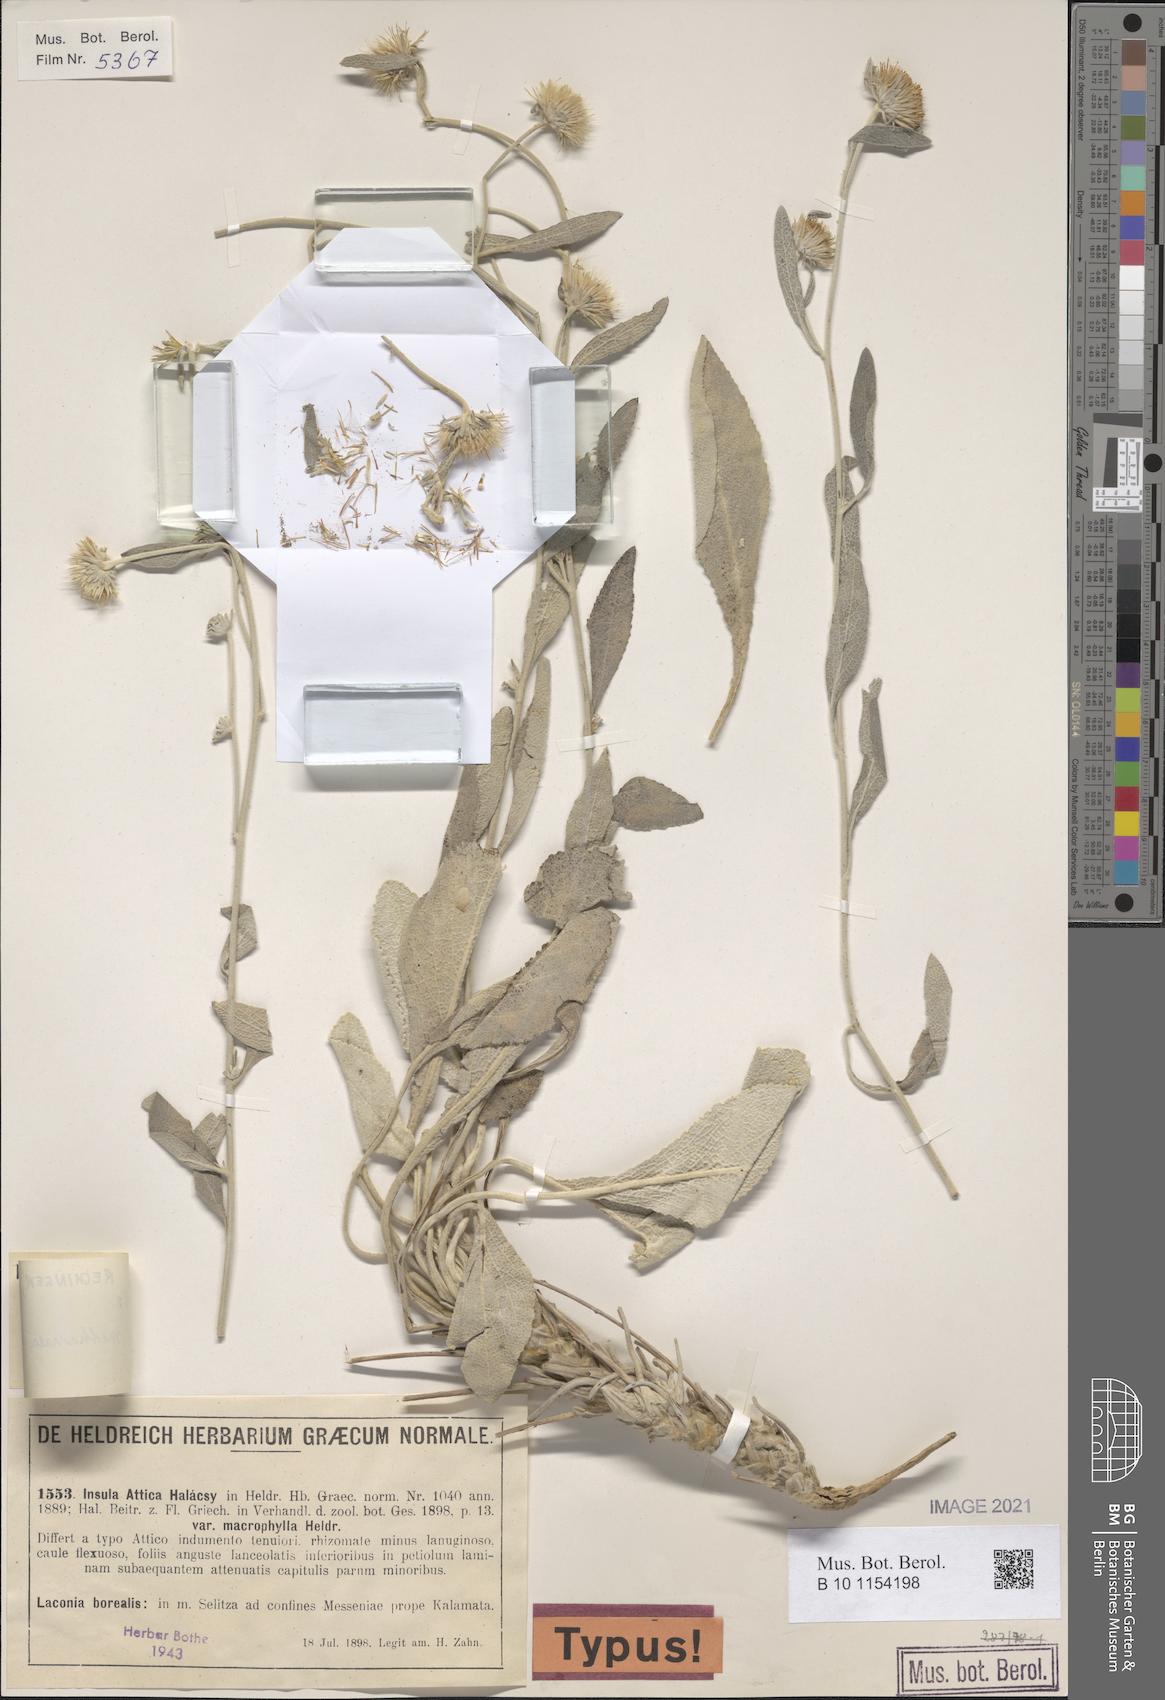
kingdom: Plantae
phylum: Tracheophyta
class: Magnoliopsida
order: Asterales
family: Asteraceae
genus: Pentanema
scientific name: Pentanema verbascifolium
